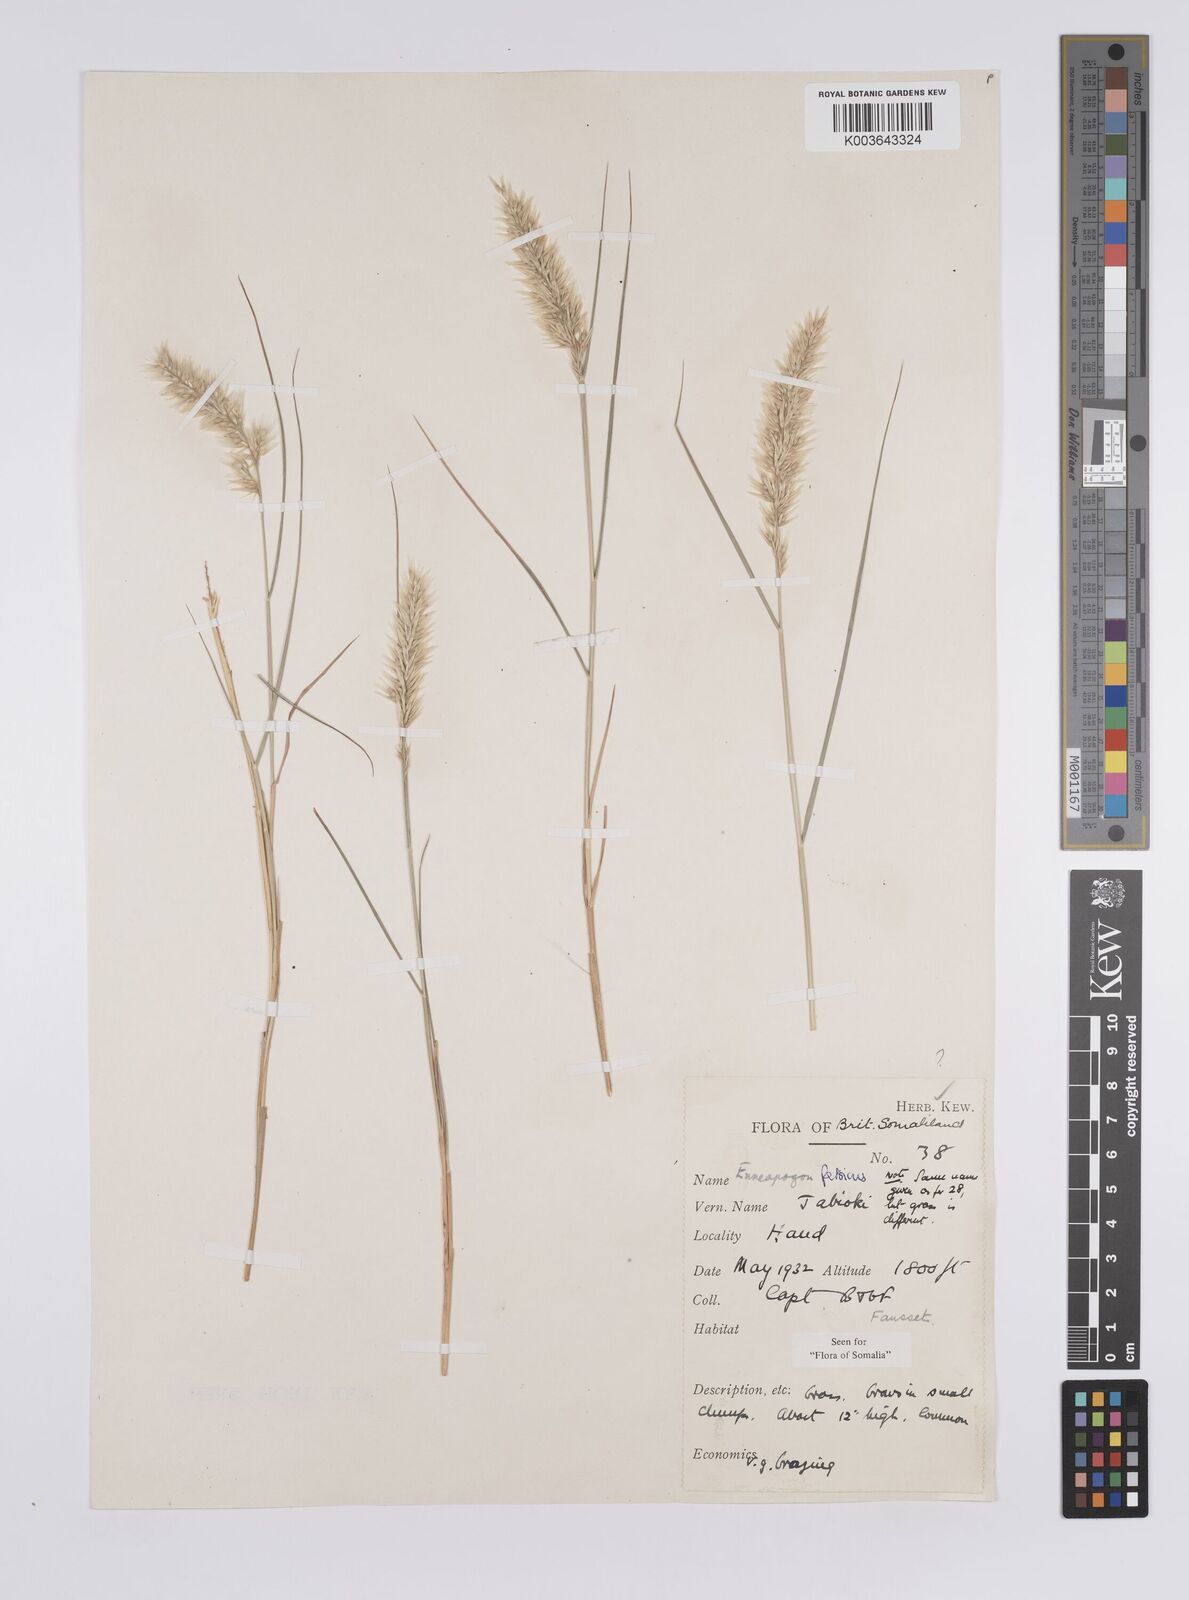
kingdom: Plantae
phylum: Tracheophyta
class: Liliopsida
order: Poales
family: Poaceae
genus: Enneapogon
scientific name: Enneapogon persicus
